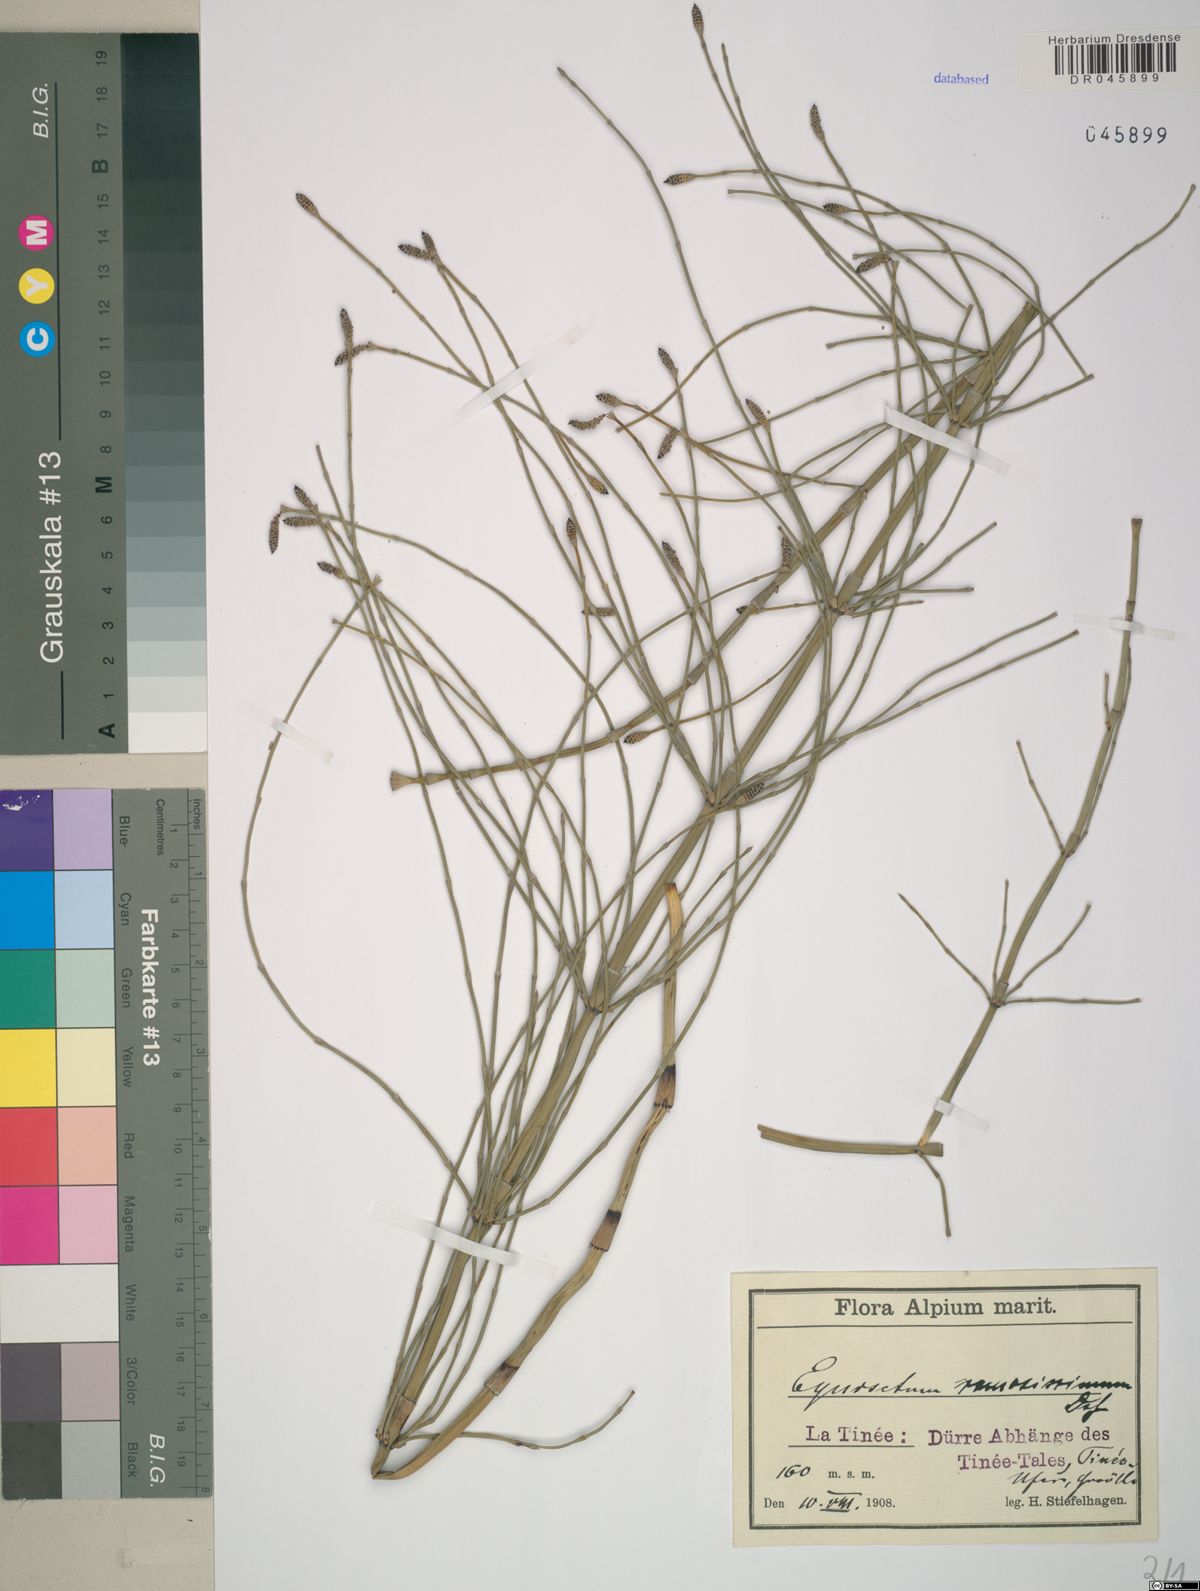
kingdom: Plantae
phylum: Tracheophyta
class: Polypodiopsida
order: Equisetales
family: Equisetaceae
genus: Equisetum
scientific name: Equisetum ramosissimum
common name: Branched horsetail
